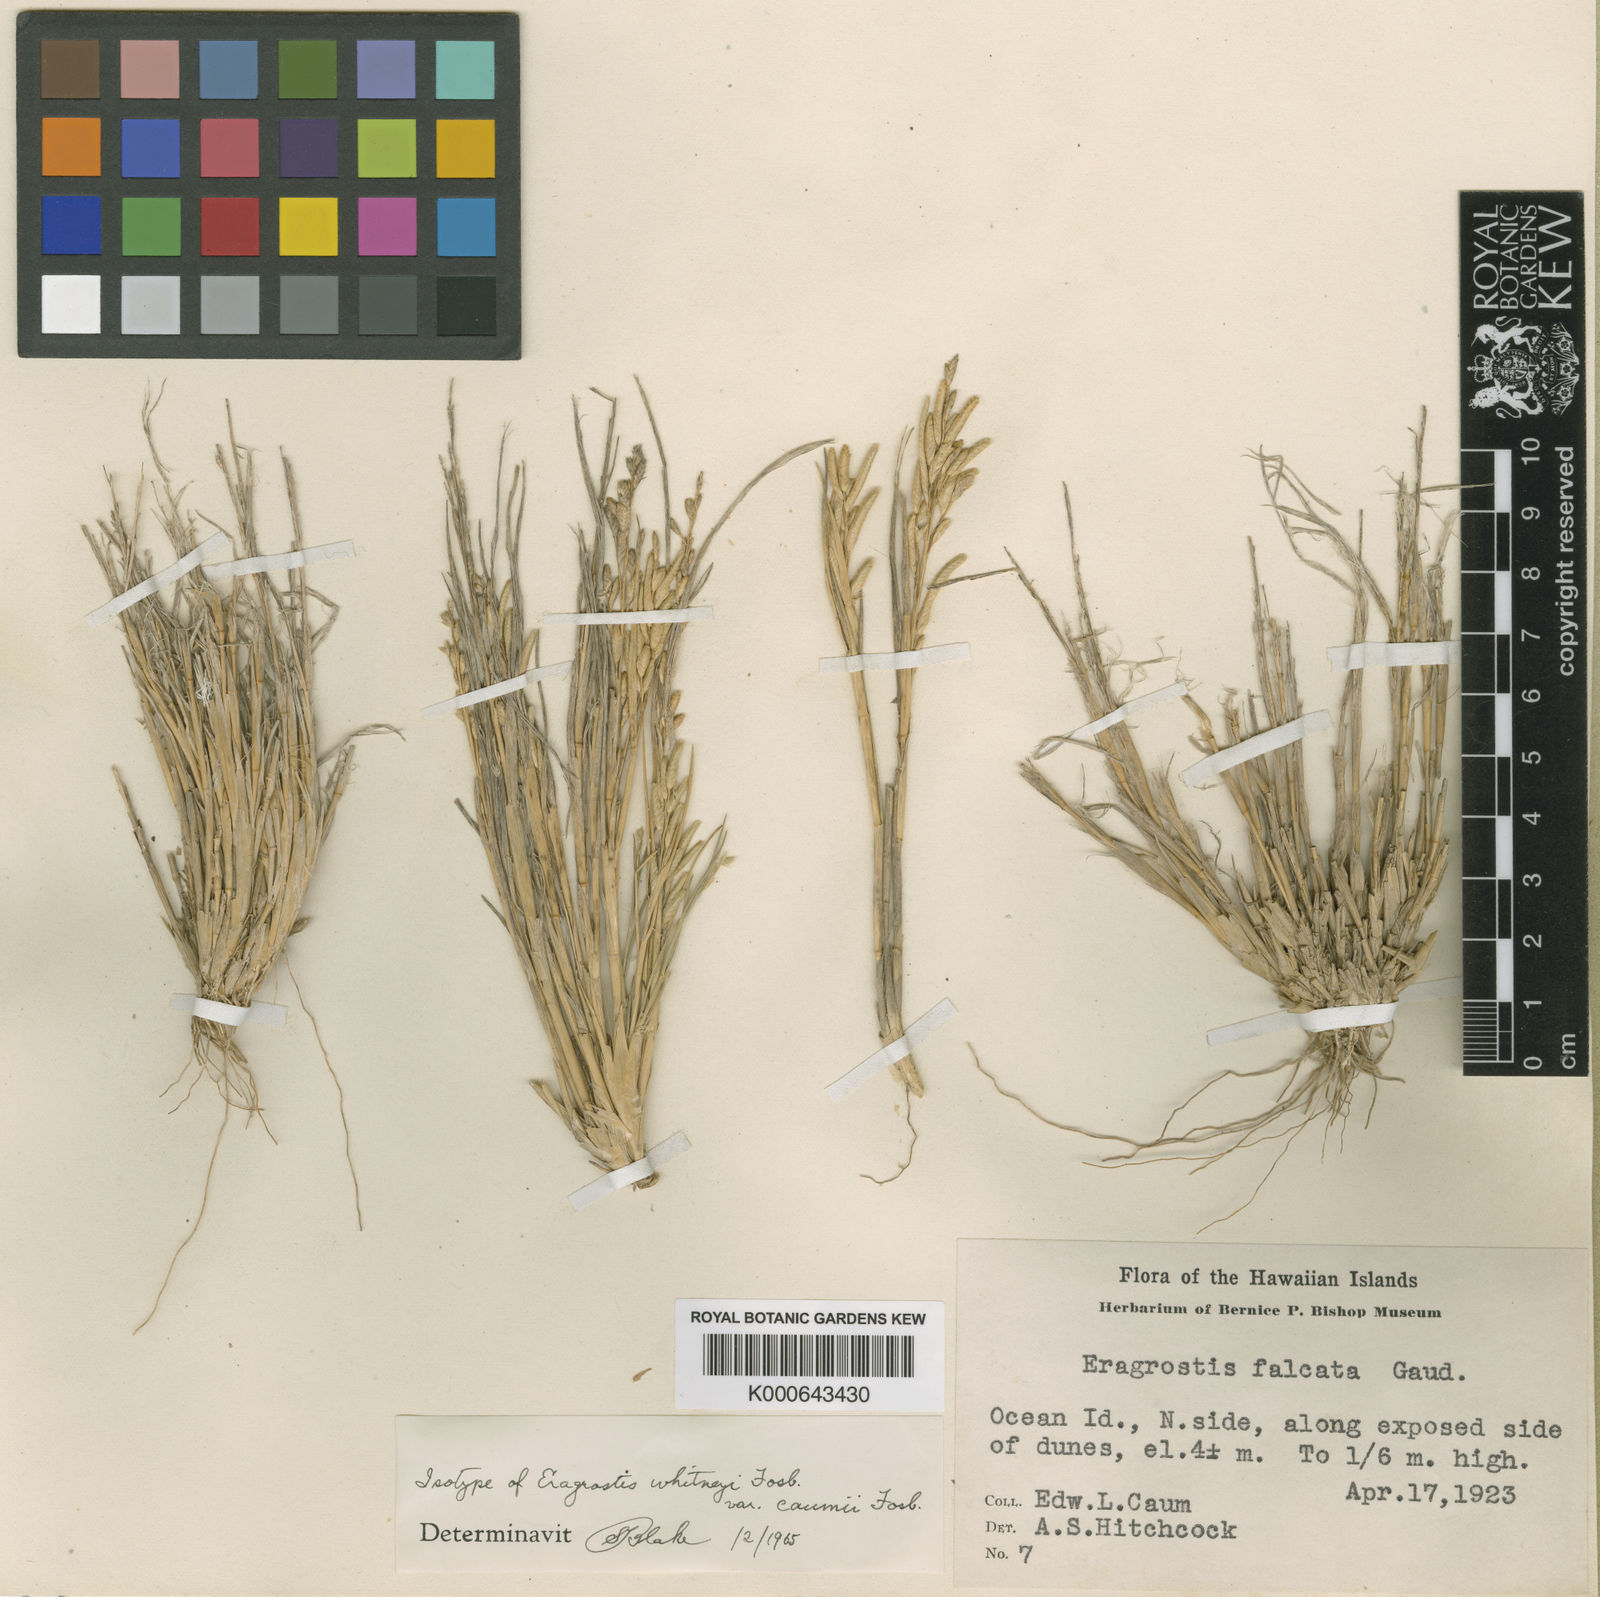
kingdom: Plantae
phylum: Tracheophyta
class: Liliopsida
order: Poales
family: Poaceae
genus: Eragrostis
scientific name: Eragrostis paupera
